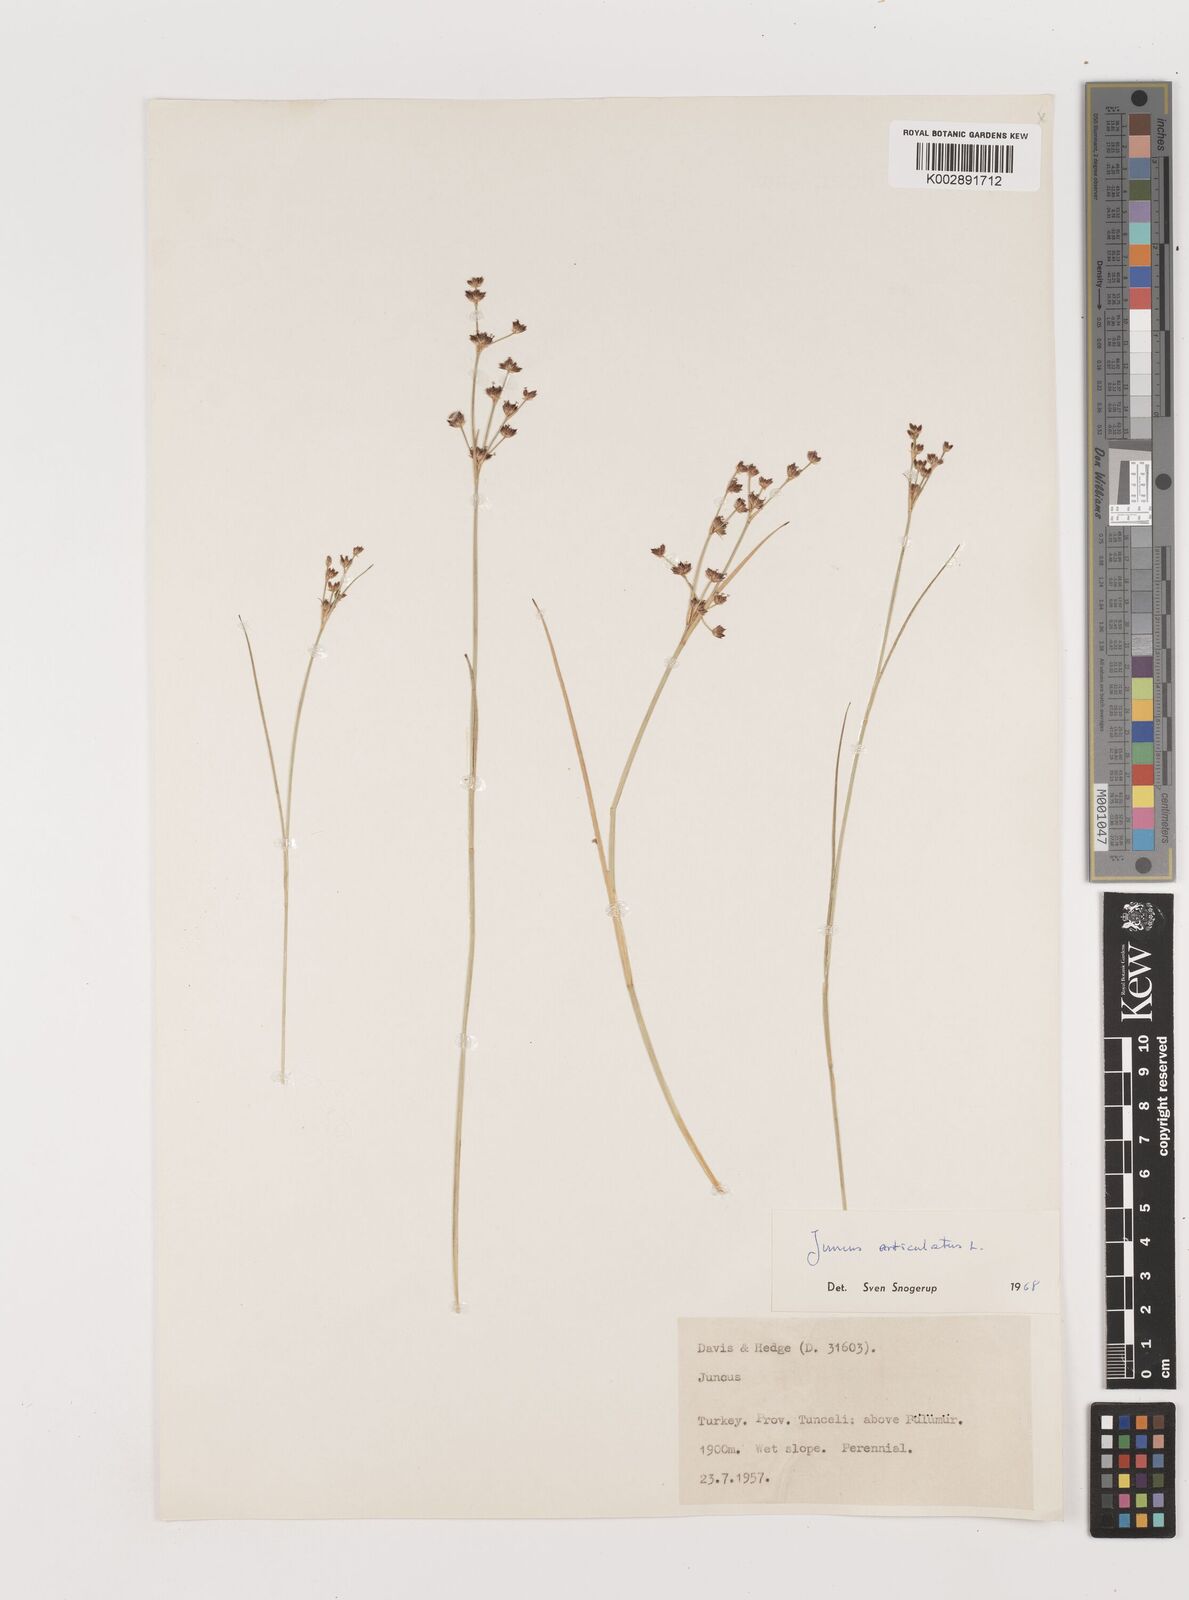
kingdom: Plantae
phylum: Tracheophyta
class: Liliopsida
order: Poales
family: Juncaceae
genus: Juncus
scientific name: Juncus articulatus
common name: Jointed rush
